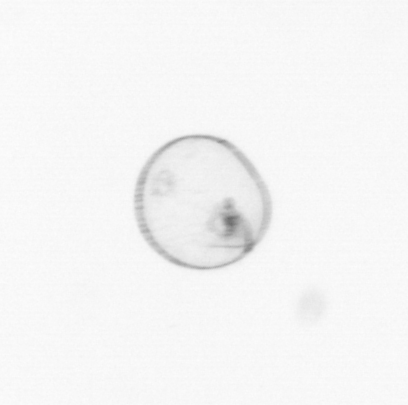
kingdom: Chromista
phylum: Myzozoa
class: Dinophyceae
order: Noctilucales
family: Noctilucaceae
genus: Noctiluca
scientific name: Noctiluca scintillans
